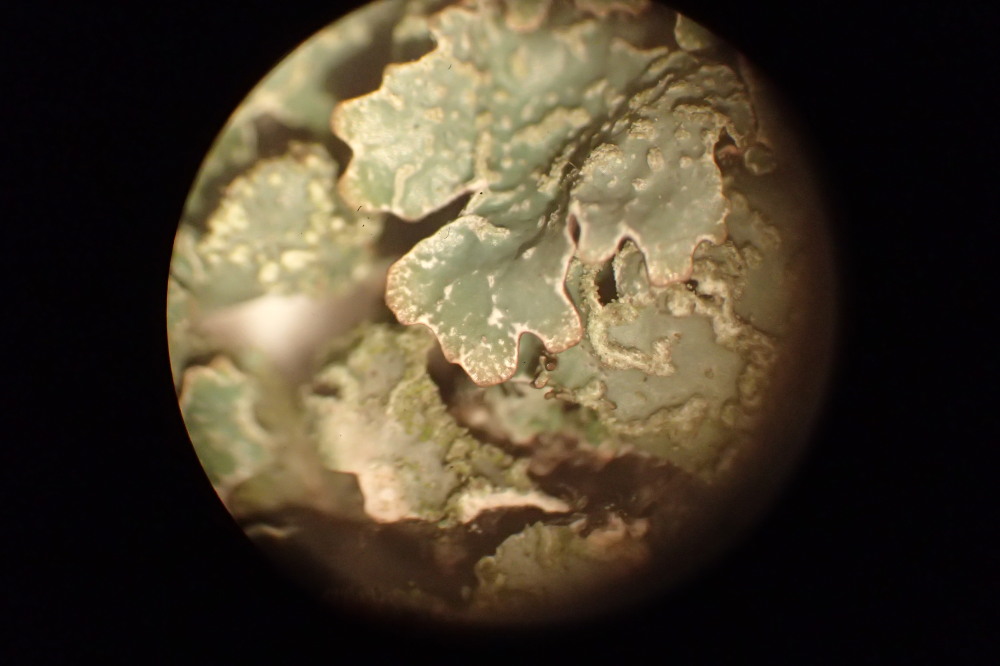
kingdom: Fungi
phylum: Ascomycota
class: Lecanoromycetes
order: Lecanorales
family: Parmeliaceae
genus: Parmelia
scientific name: Parmelia sulcata
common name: rynket skållav
